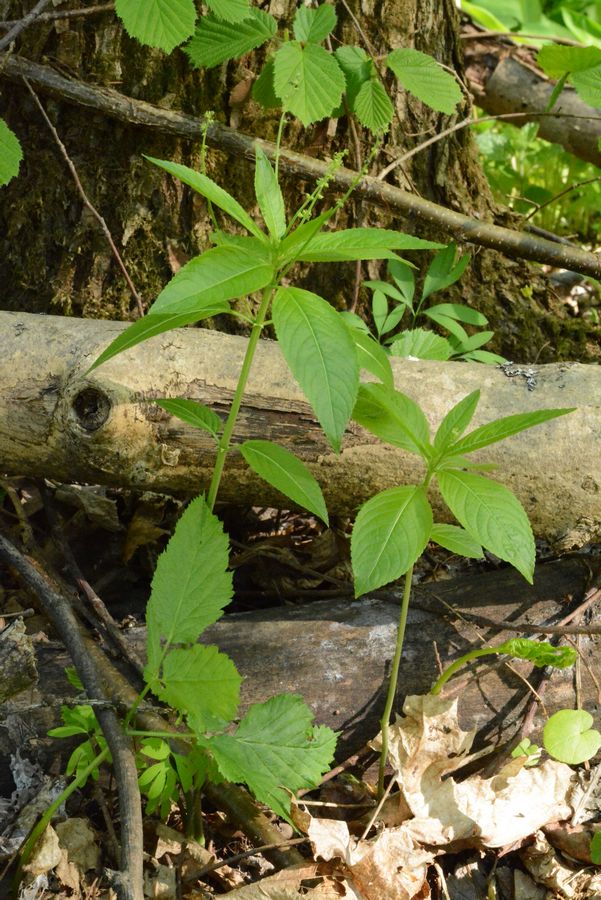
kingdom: Plantae
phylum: Tracheophyta
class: Magnoliopsida
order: Malpighiales
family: Euphorbiaceae
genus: Mercurialis
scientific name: Mercurialis perennis
